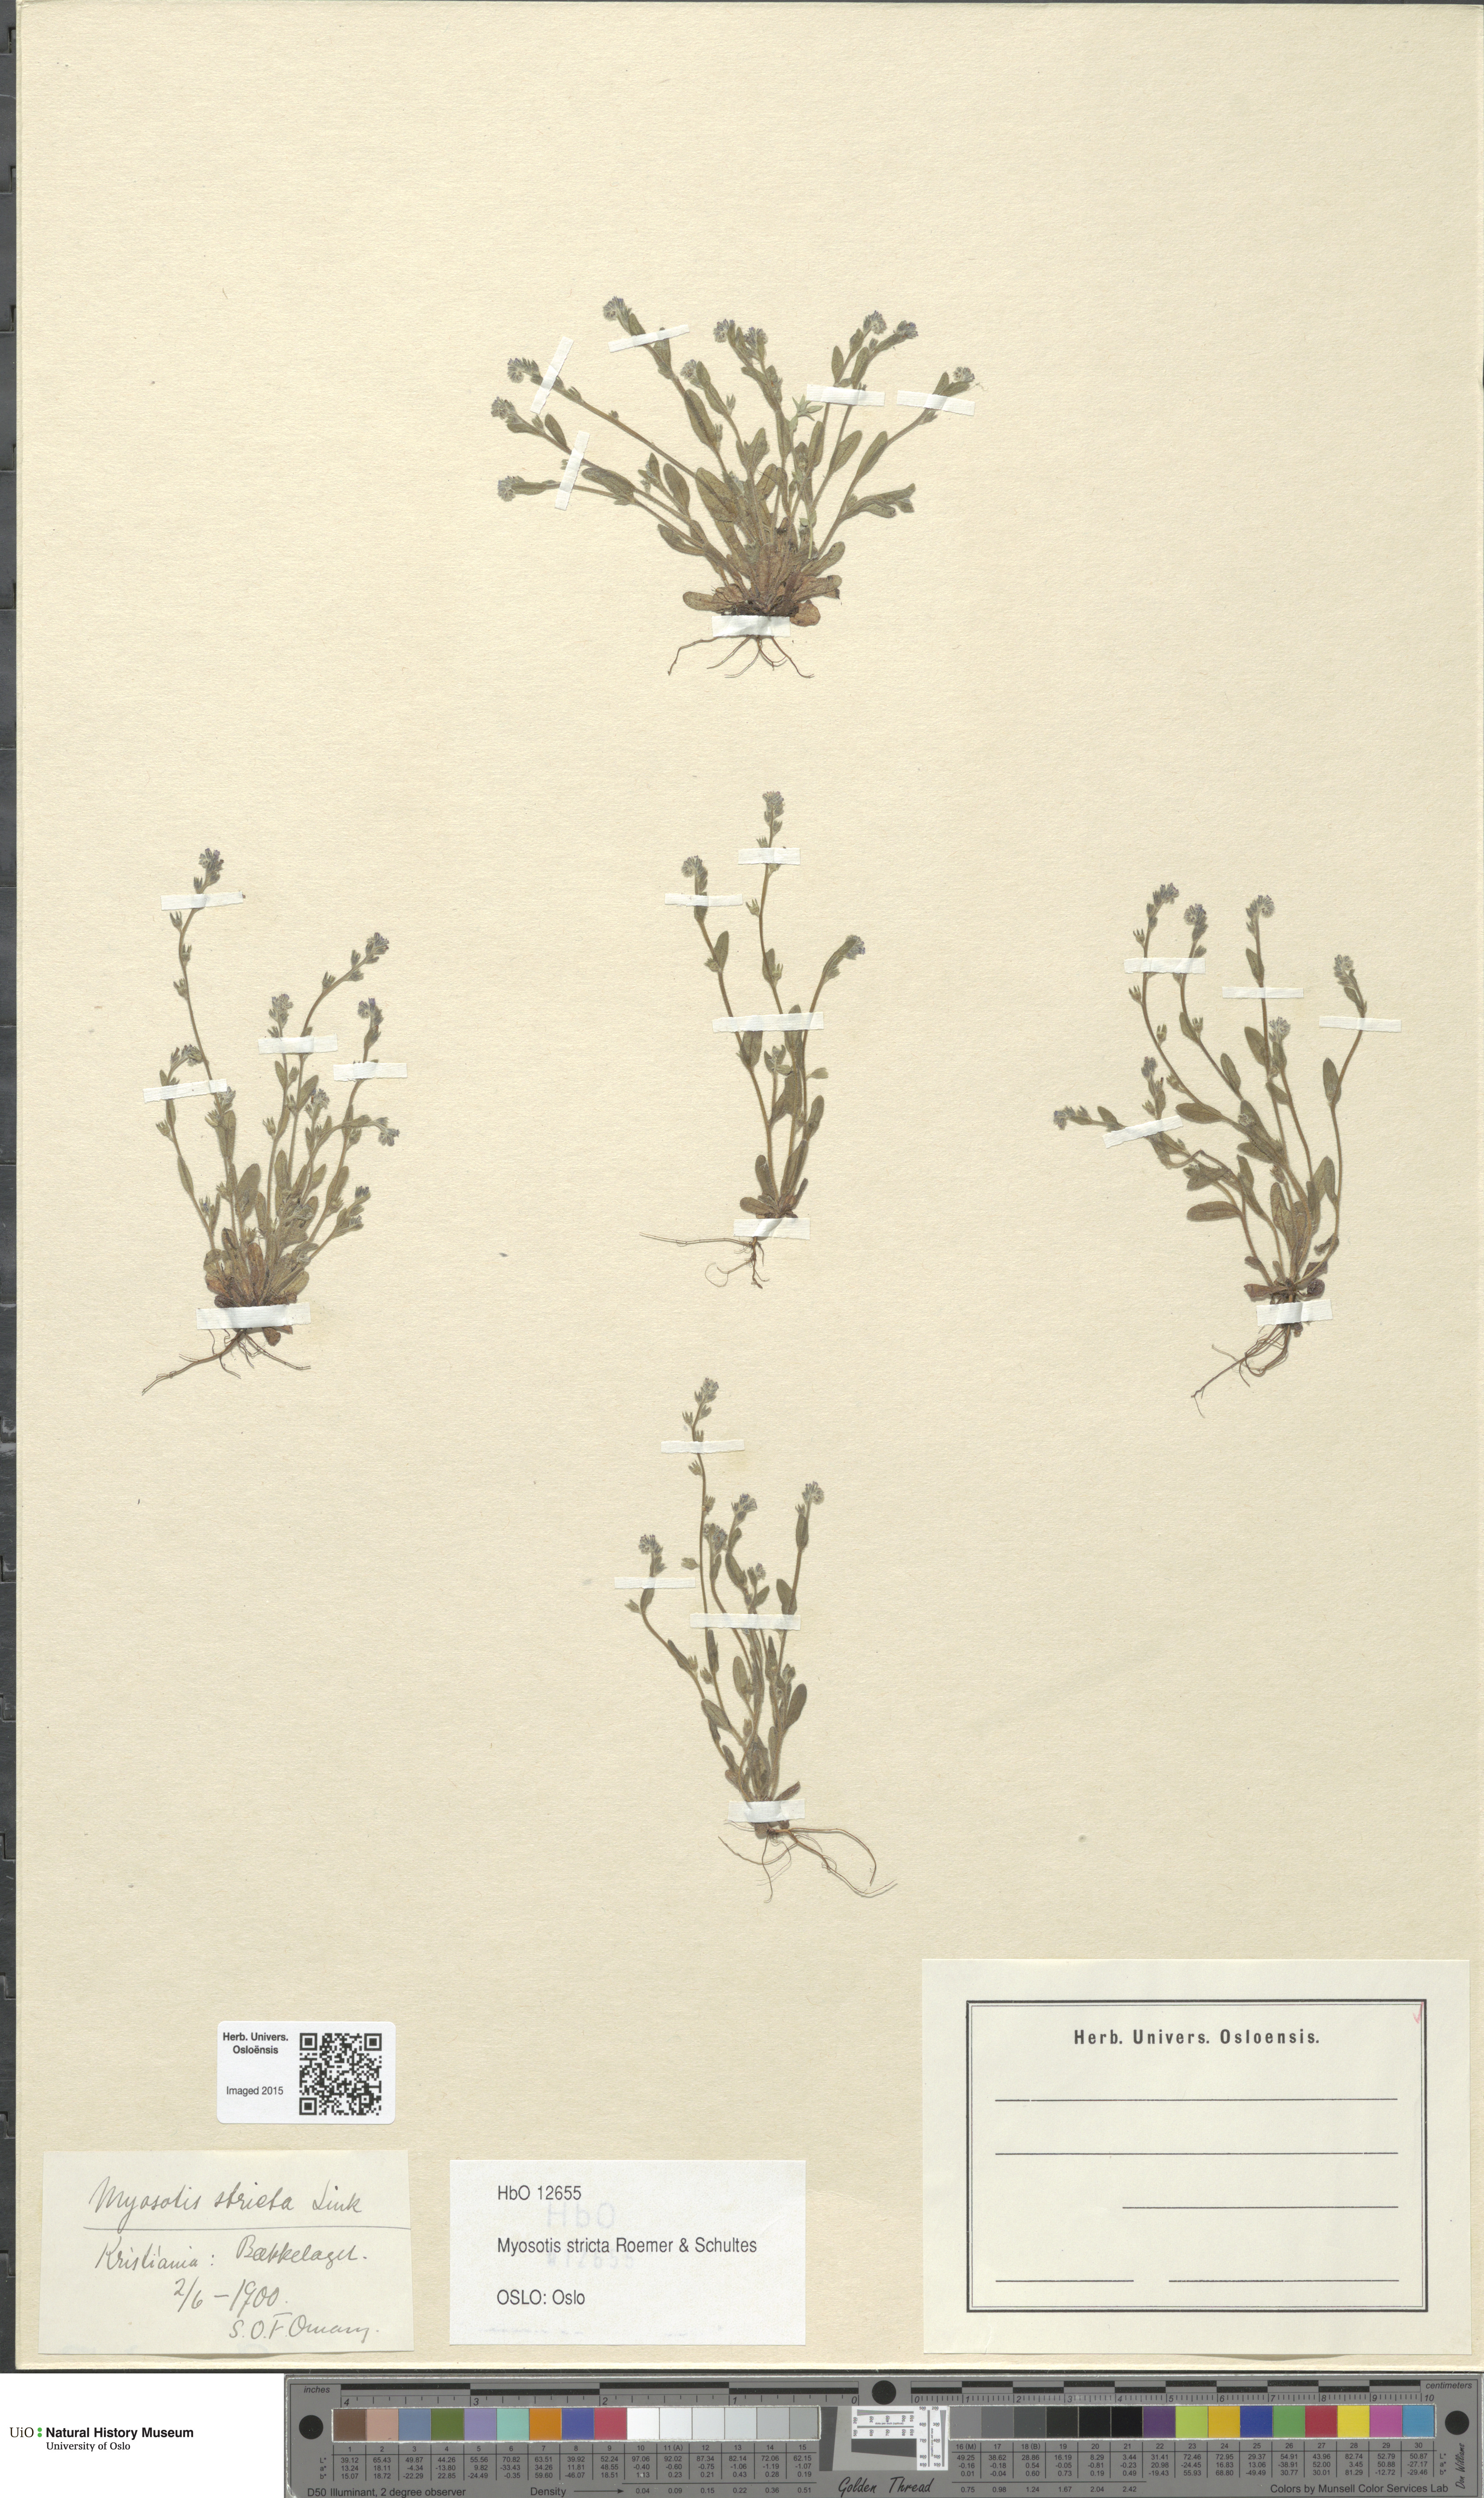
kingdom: Plantae
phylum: Tracheophyta
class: Magnoliopsida
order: Boraginales
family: Boraginaceae
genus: Myosotis
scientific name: Myosotis stricta
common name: Strict forget-me-not
